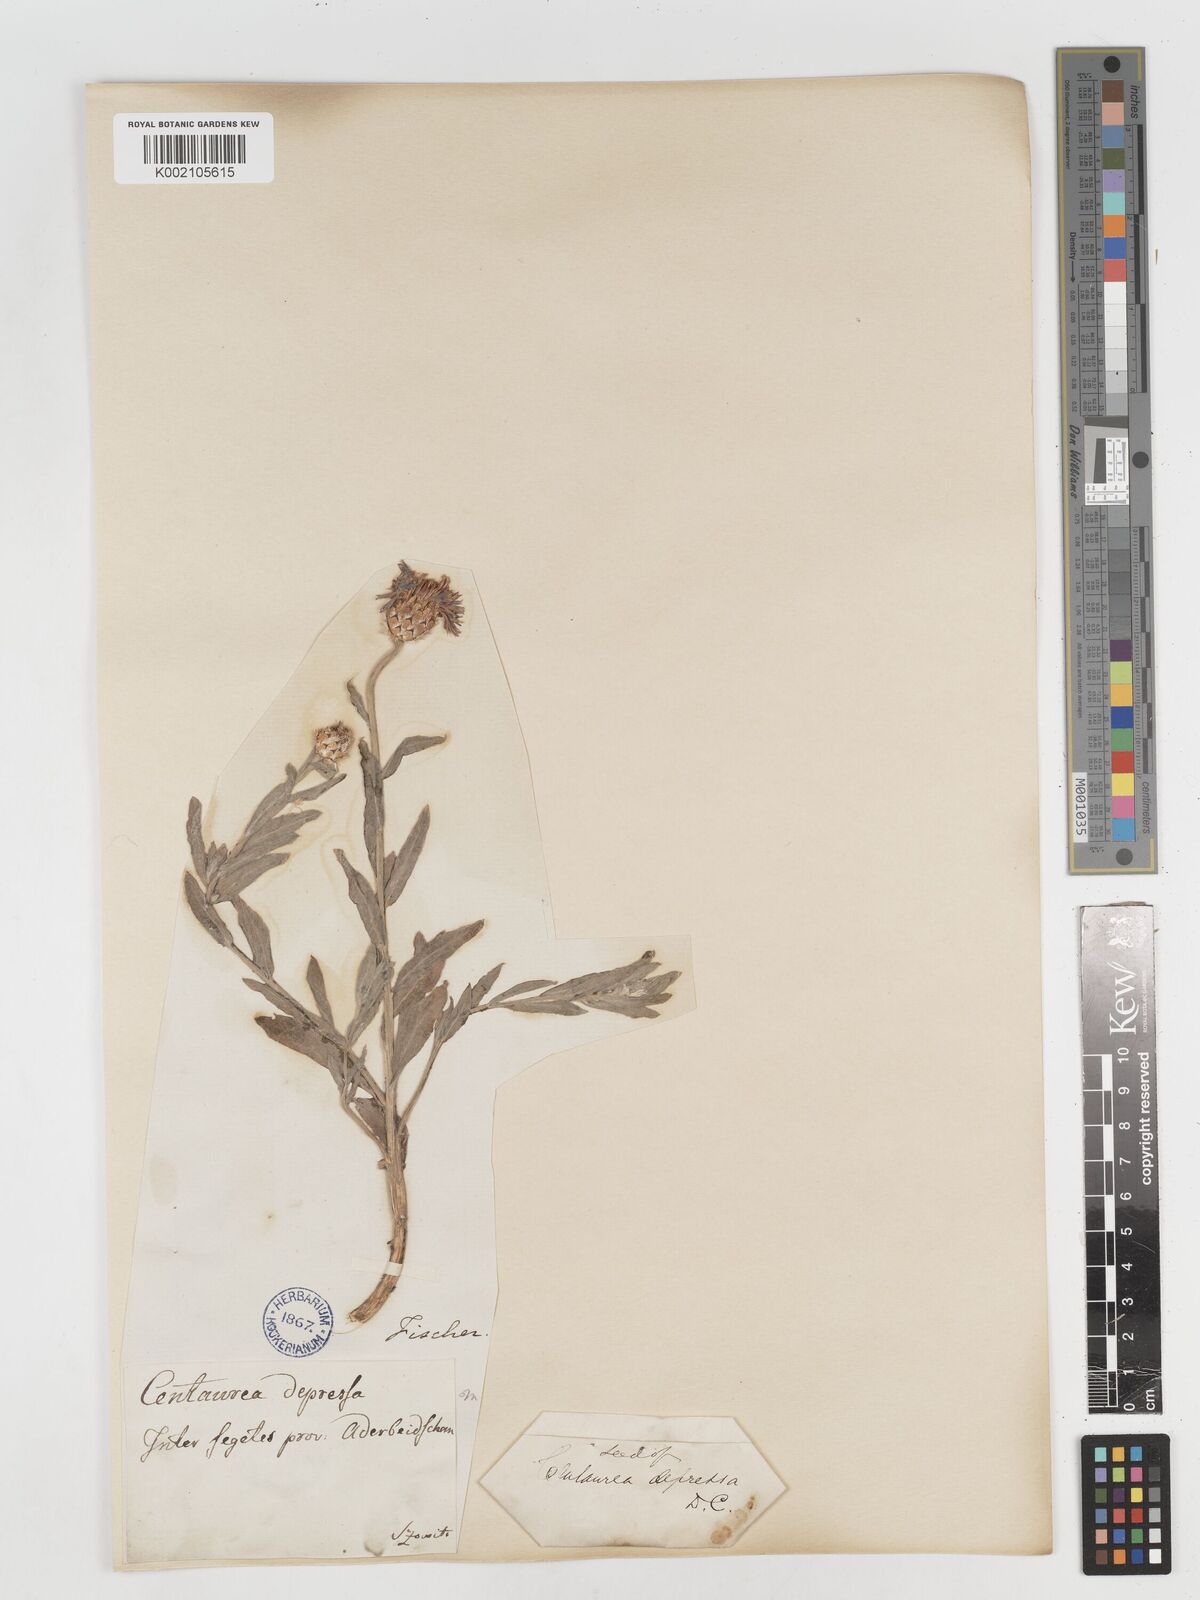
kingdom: Plantae
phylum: Tracheophyta
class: Magnoliopsida
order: Asterales
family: Asteraceae
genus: Centaurea
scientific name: Centaurea depressa
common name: Iranian knapweed
